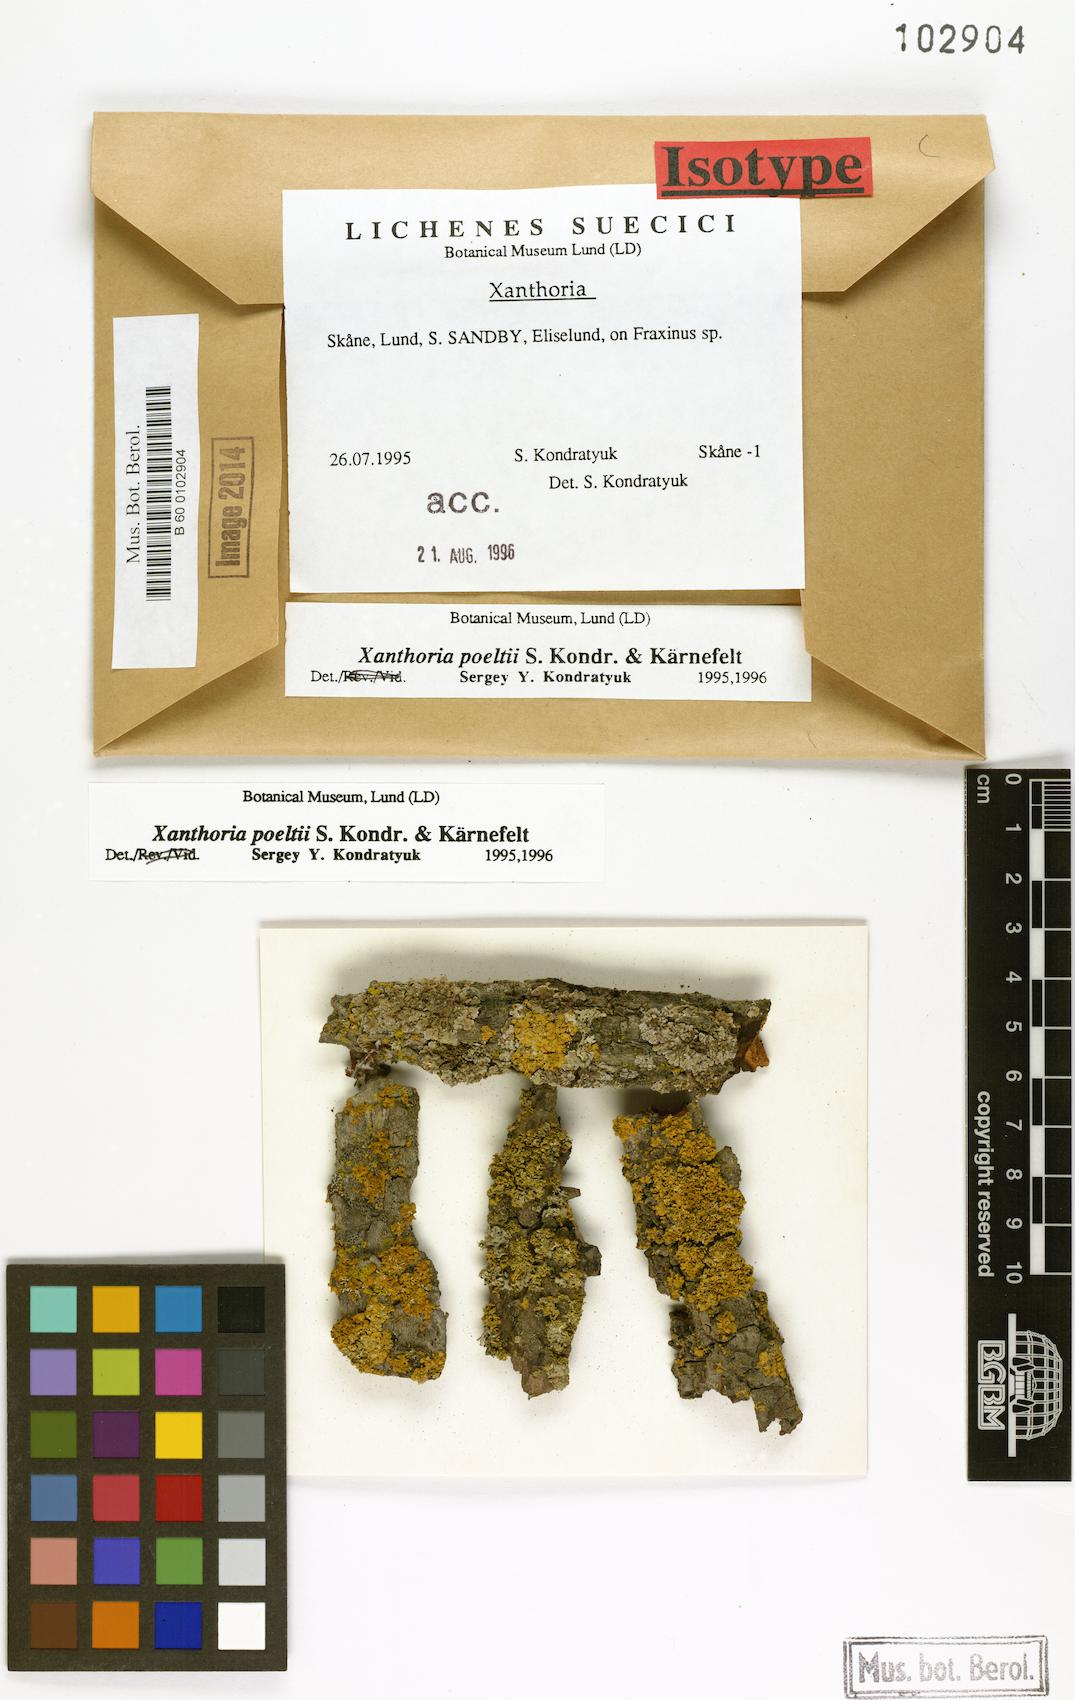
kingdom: Fungi
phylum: Ascomycota
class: Lecanoromycetes
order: Teloschistales
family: Teloschistaceae
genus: Gallowayella
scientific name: Gallowayella poeltii
